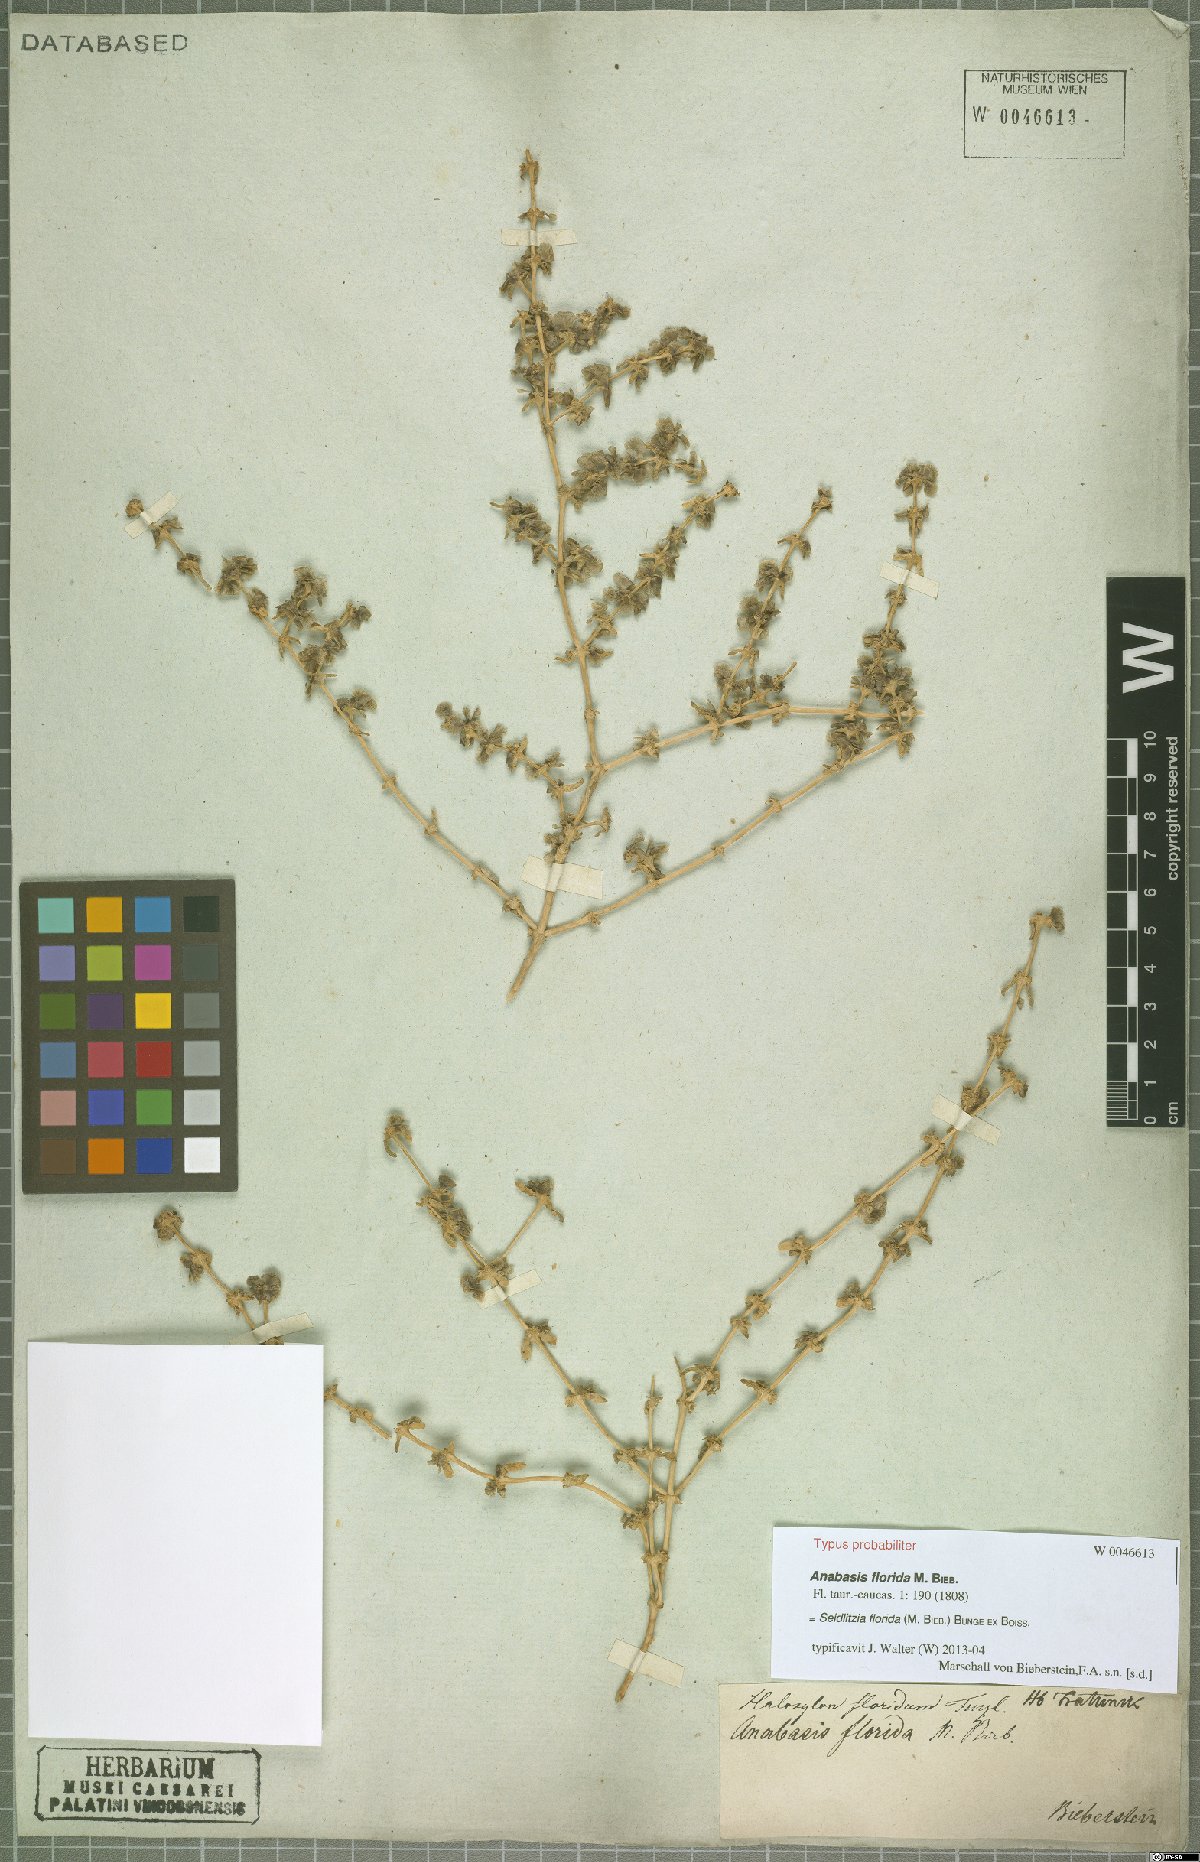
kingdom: Plantae
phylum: Tracheophyta
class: Magnoliopsida
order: Caryophyllales
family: Amaranthaceae
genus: Soda
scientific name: Soda florida
